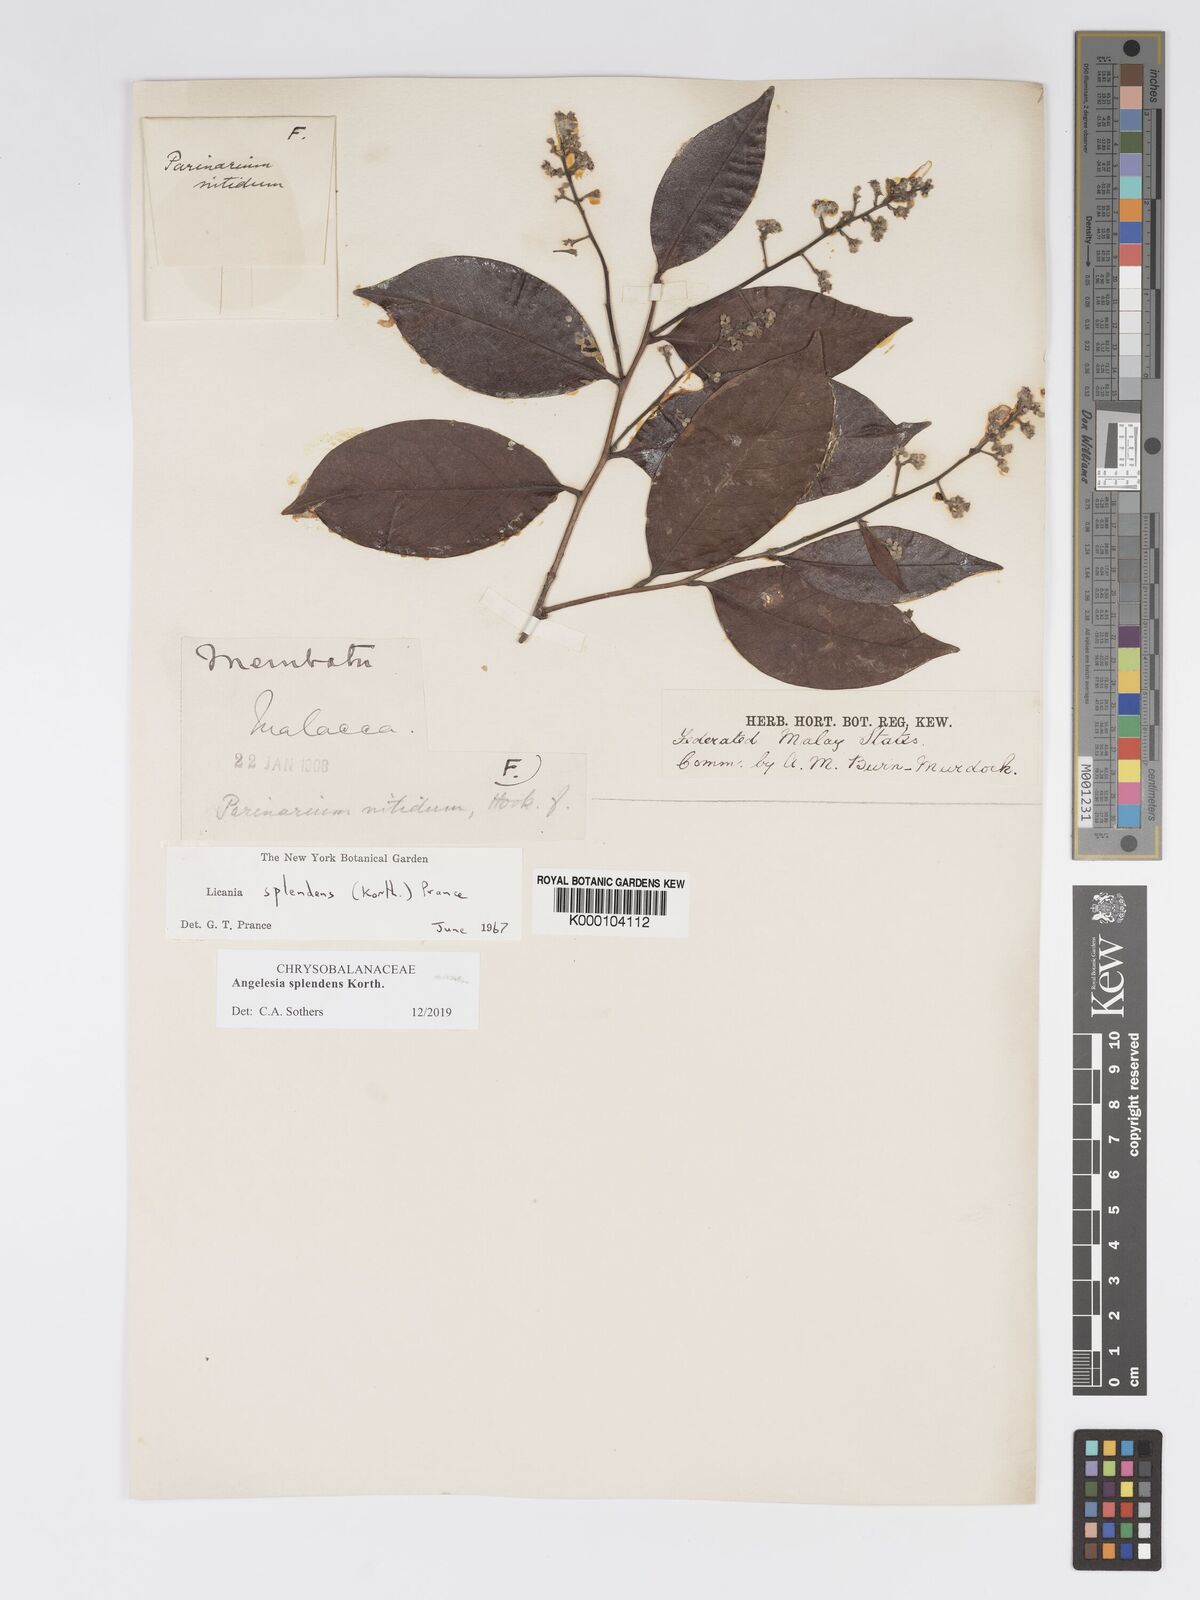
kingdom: Plantae
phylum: Tracheophyta
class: Magnoliopsida
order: Malpighiales
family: Chrysobalanaceae
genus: Angelesia
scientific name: Angelesia splendens
